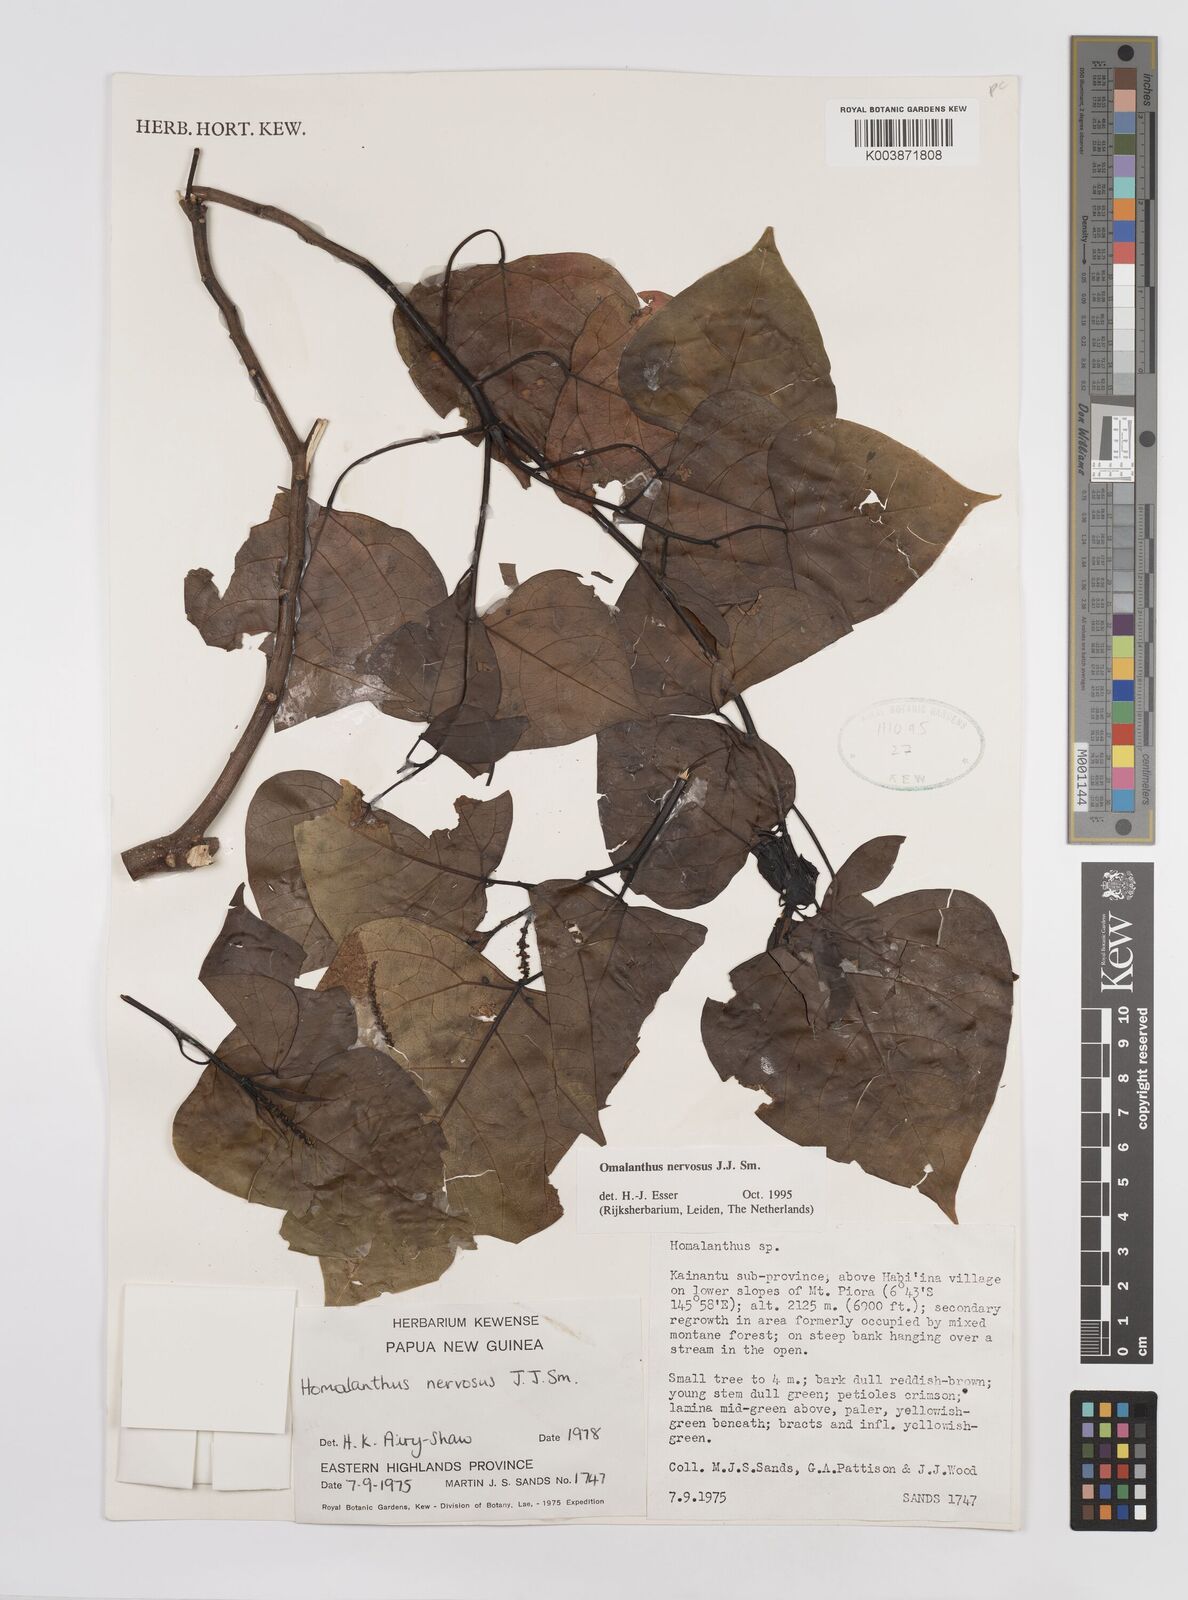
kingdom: Plantae
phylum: Tracheophyta
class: Magnoliopsida
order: Malpighiales
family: Euphorbiaceae
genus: Homalanthus
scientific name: Homalanthus nervosus
